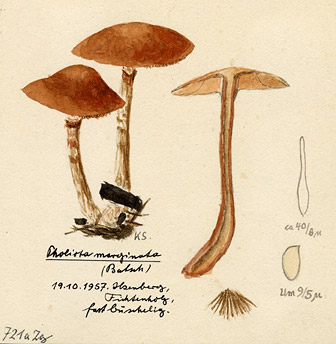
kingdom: Fungi
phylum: Basidiomycota
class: Agaricomycetes
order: Agaricales
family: Hymenogastraceae
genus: Galerina
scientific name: Galerina marginata
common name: Funeral bell
